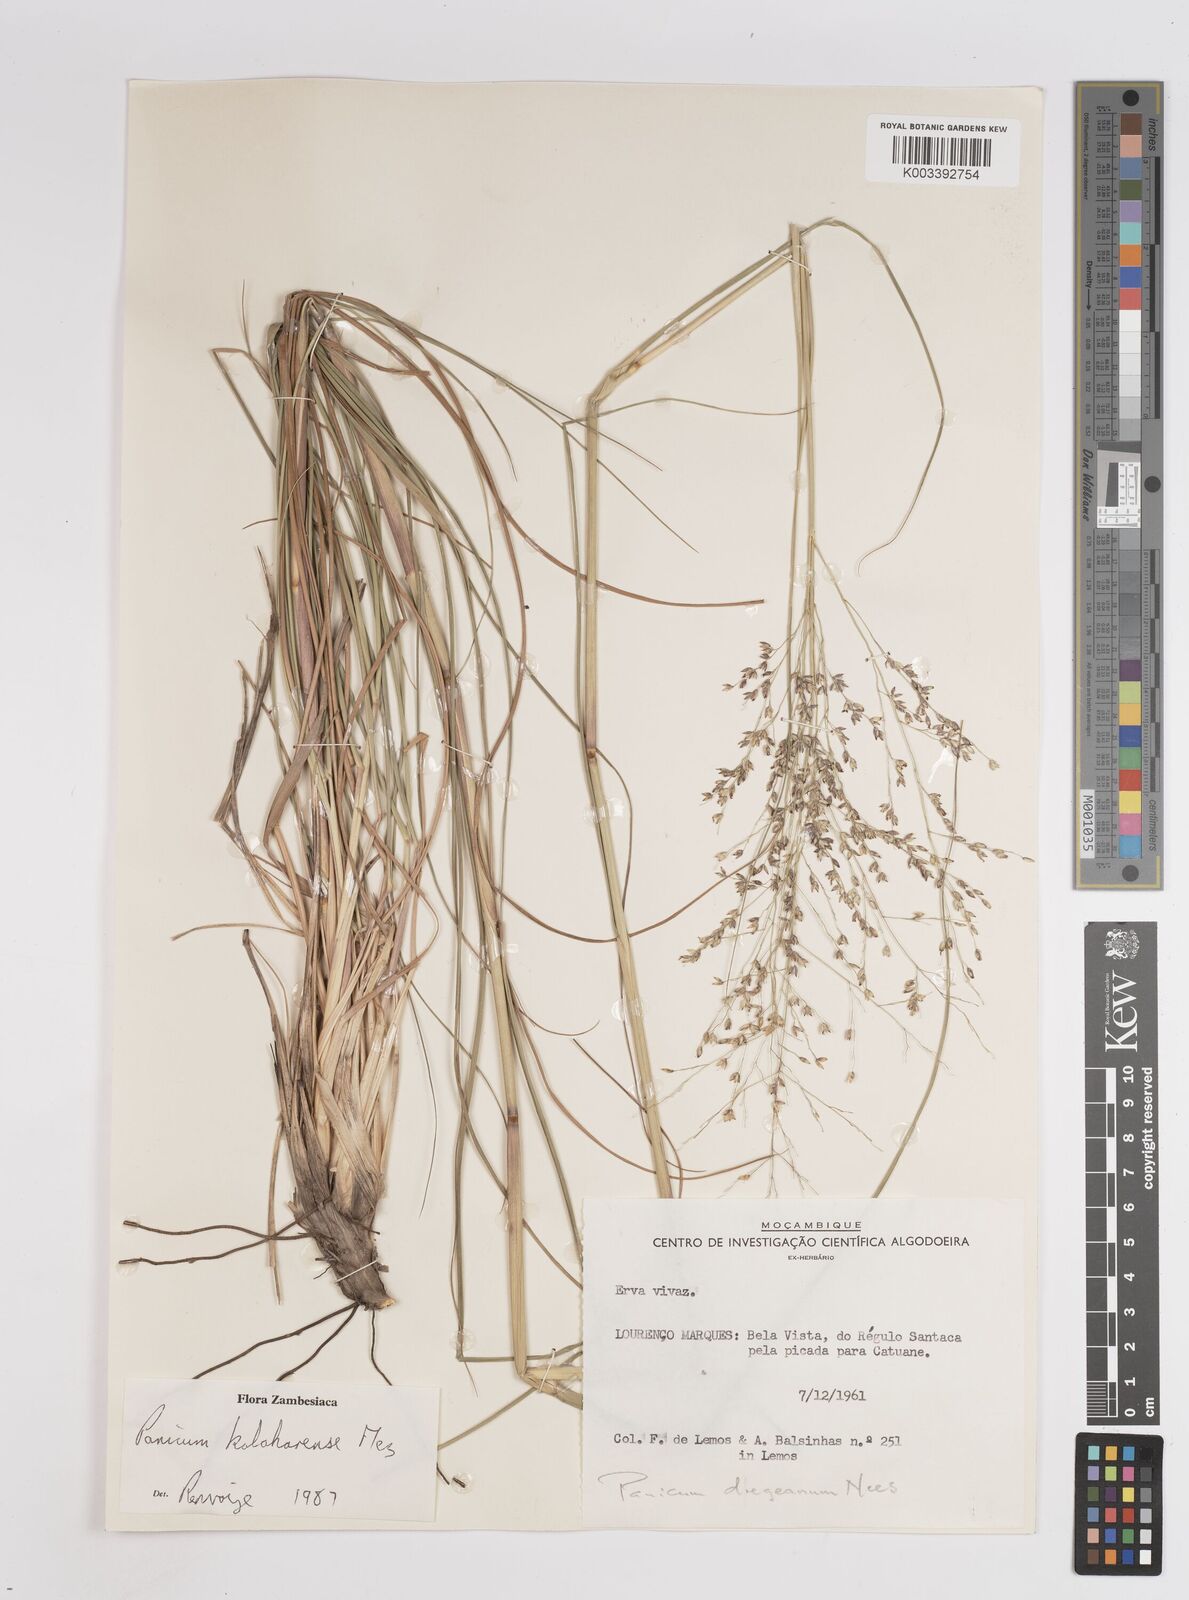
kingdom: Plantae
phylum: Tracheophyta
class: Liliopsida
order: Poales
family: Poaceae
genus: Panicum
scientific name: Panicum kalaharense
